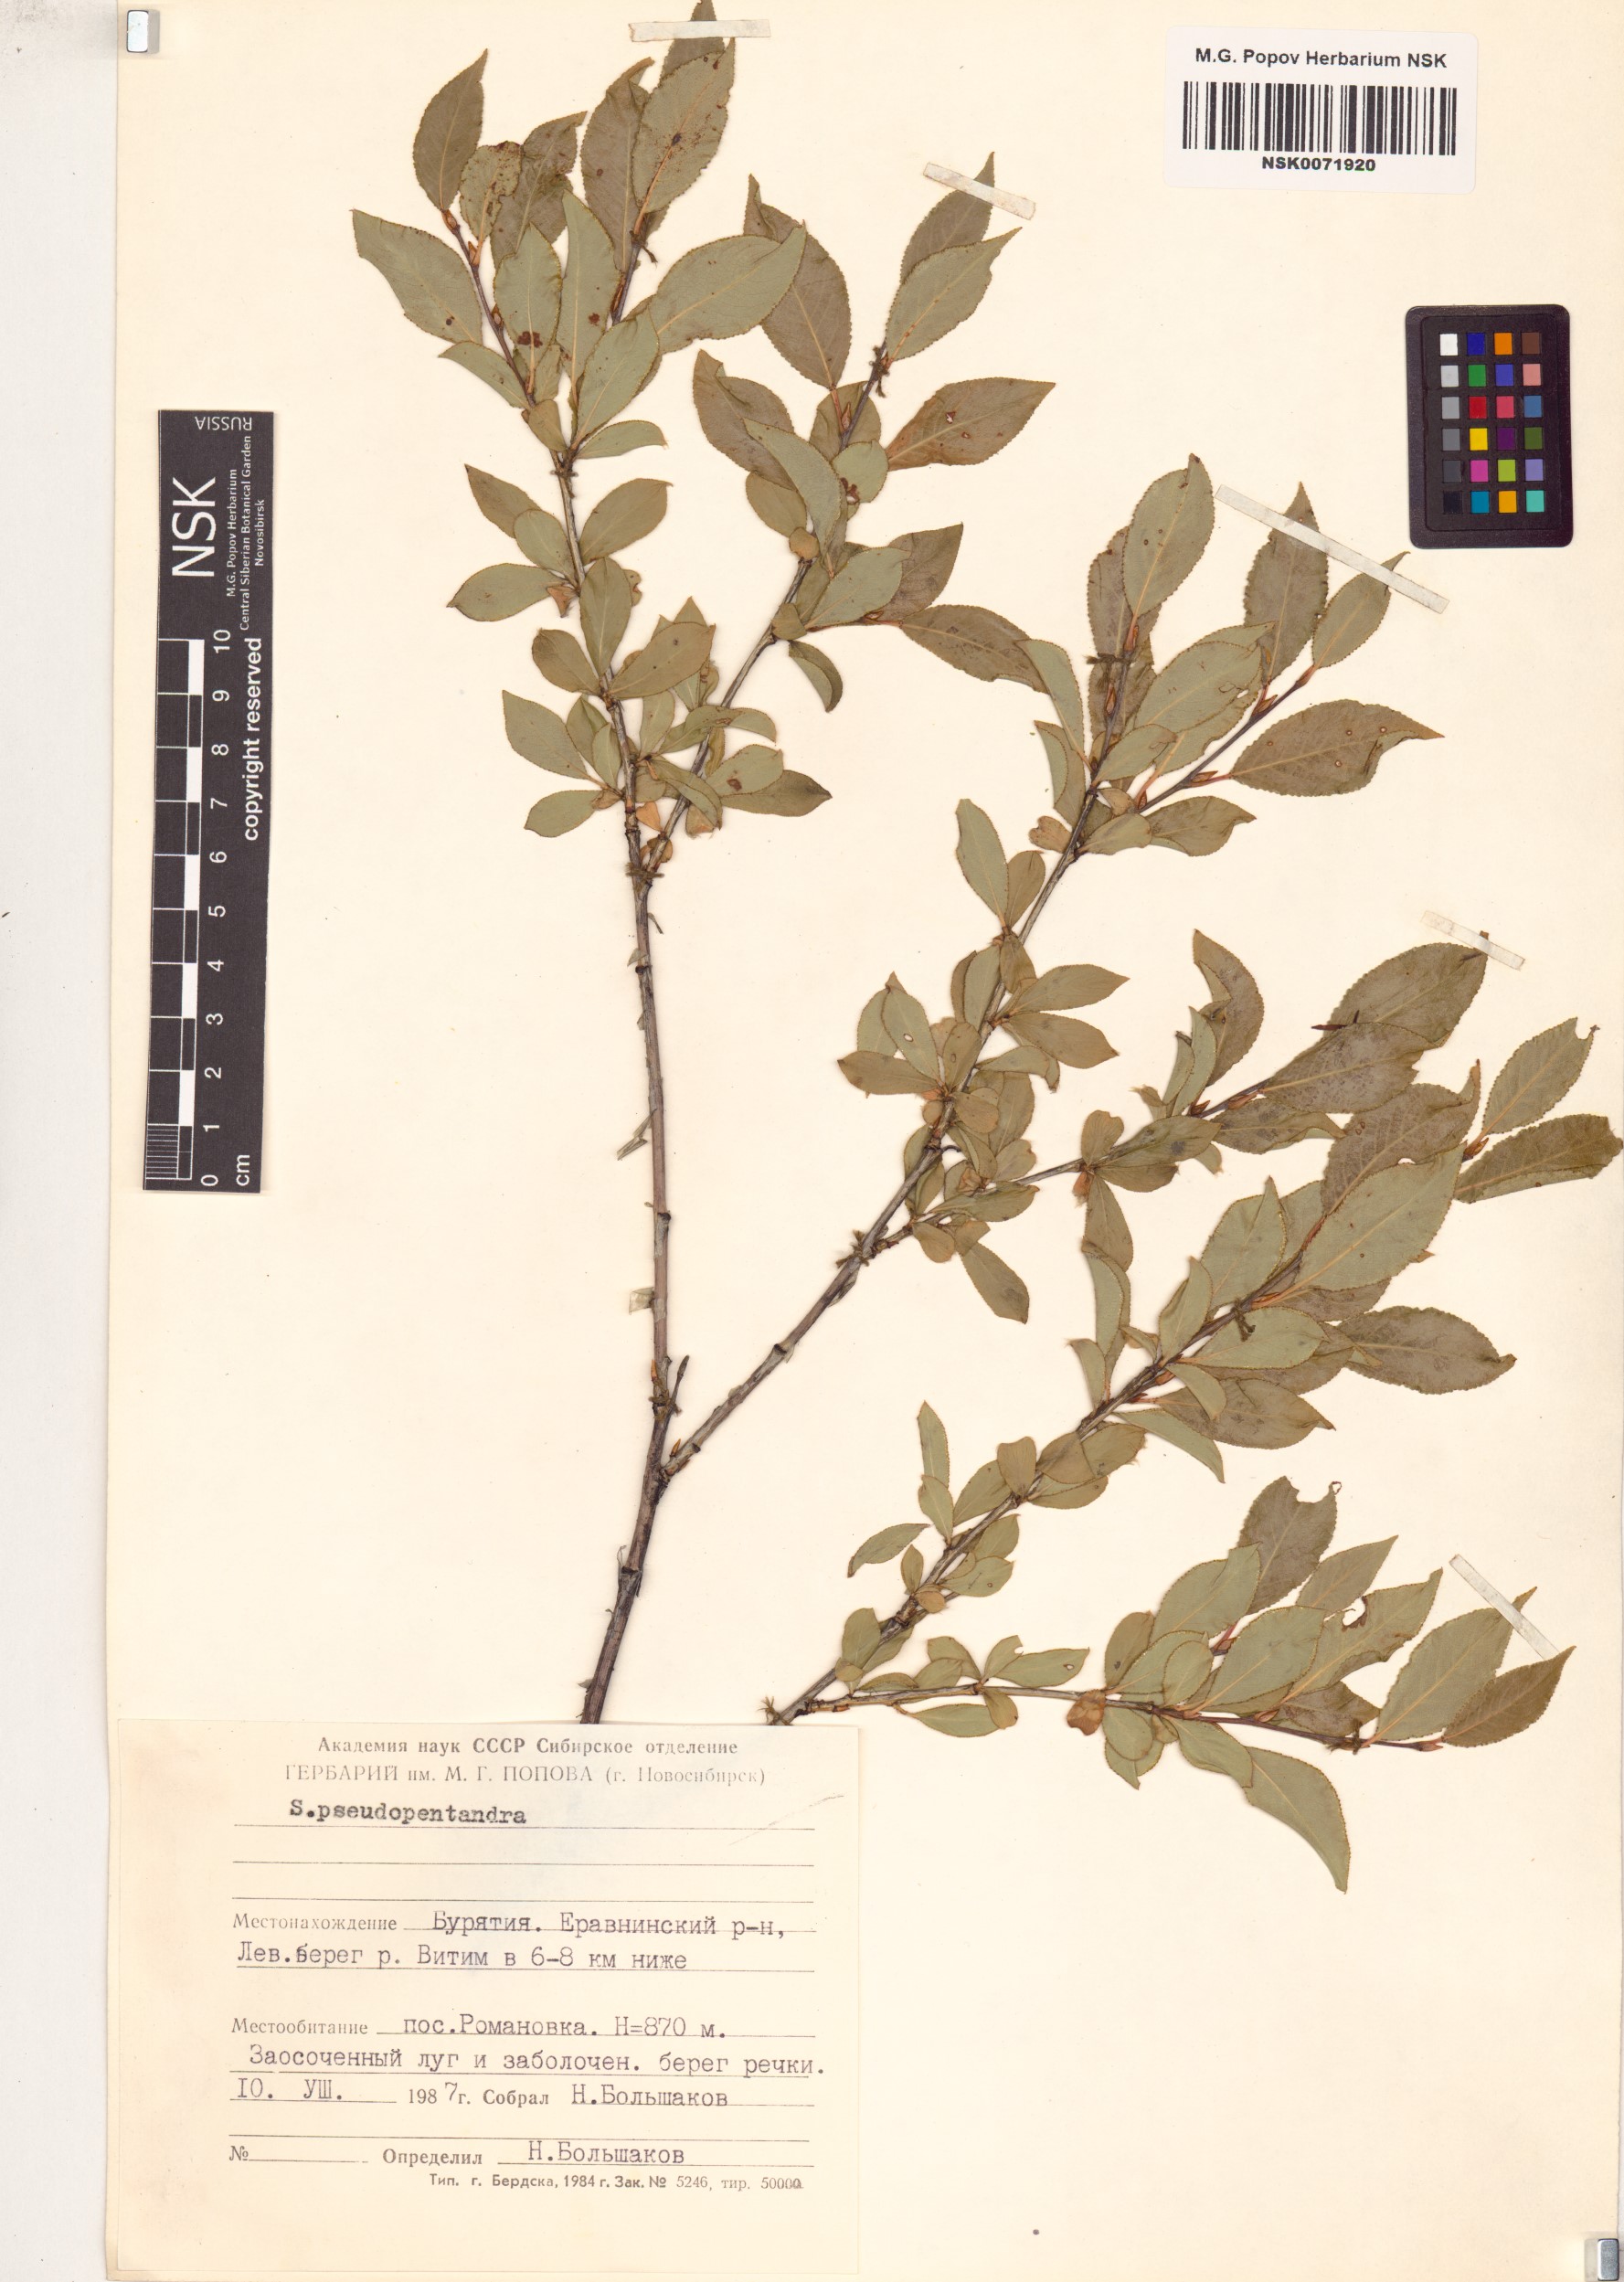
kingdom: Plantae
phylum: Tracheophyta
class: Magnoliopsida
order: Malpighiales
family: Salicaceae
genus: Salix
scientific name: Salix pseudopentandra
